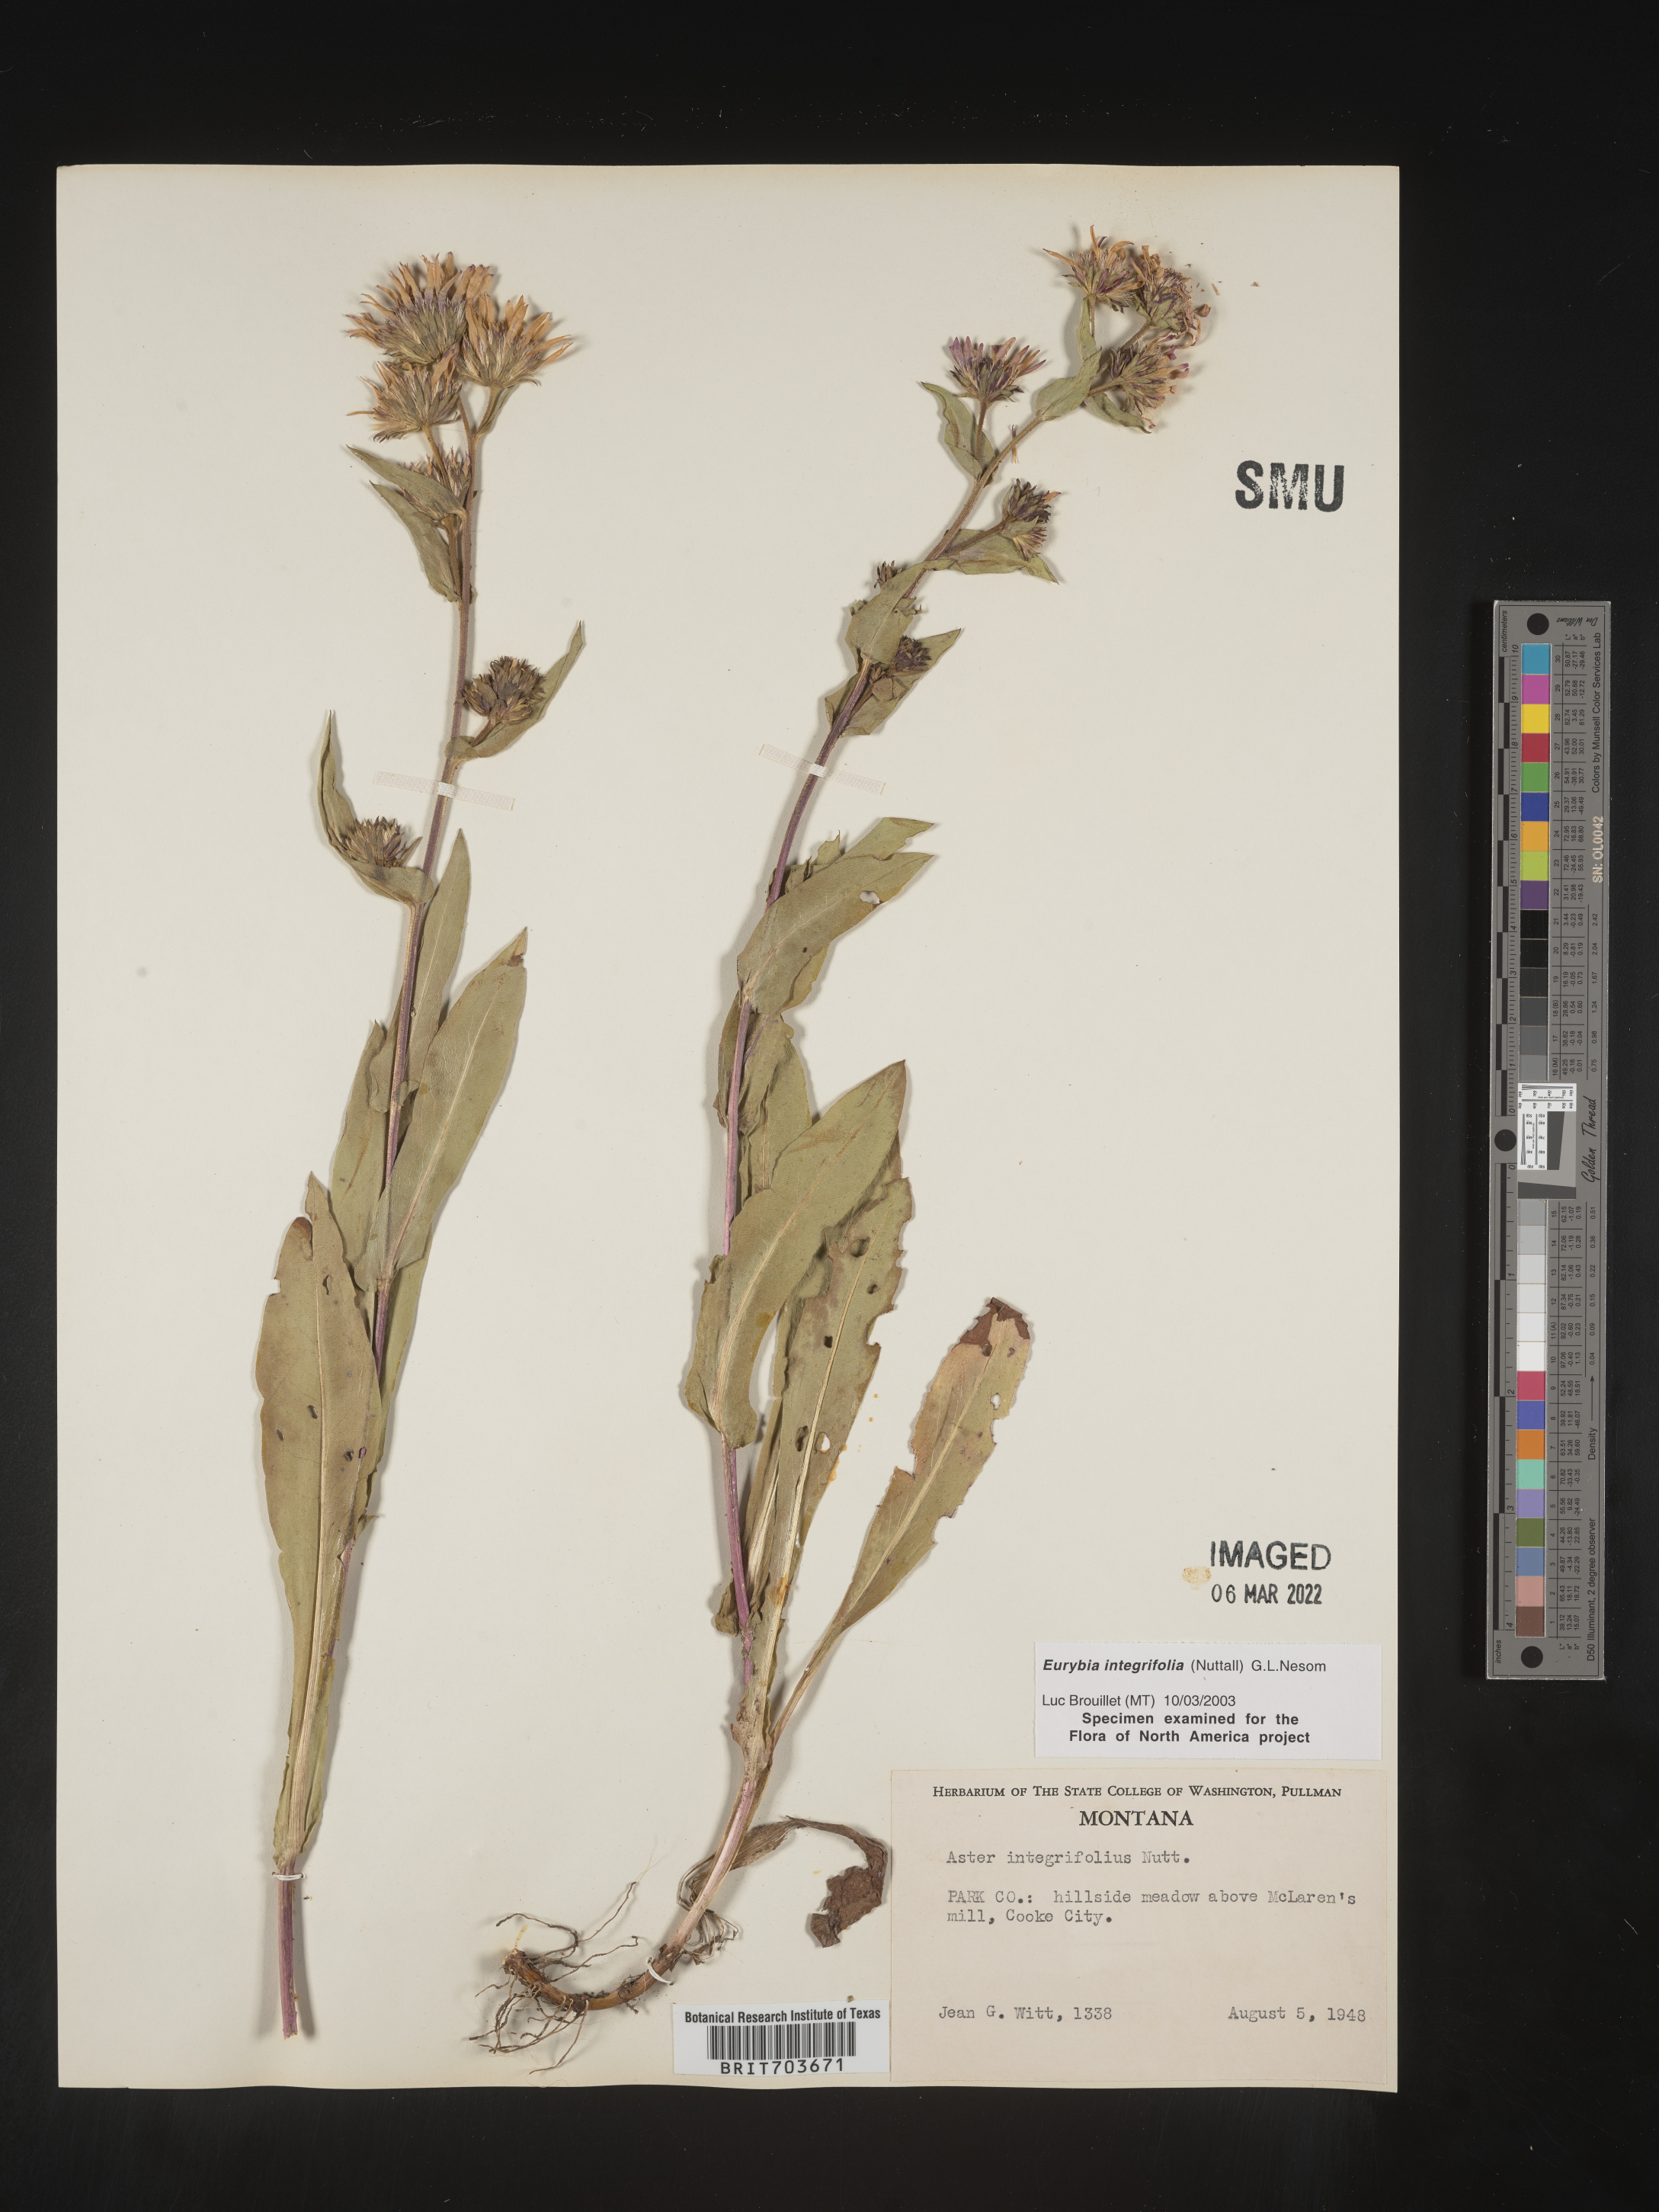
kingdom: Plantae
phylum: Tracheophyta
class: Magnoliopsida
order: Asterales
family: Asteraceae
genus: Eurybia
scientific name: Eurybia integrifolia
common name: Thick-stem aster
